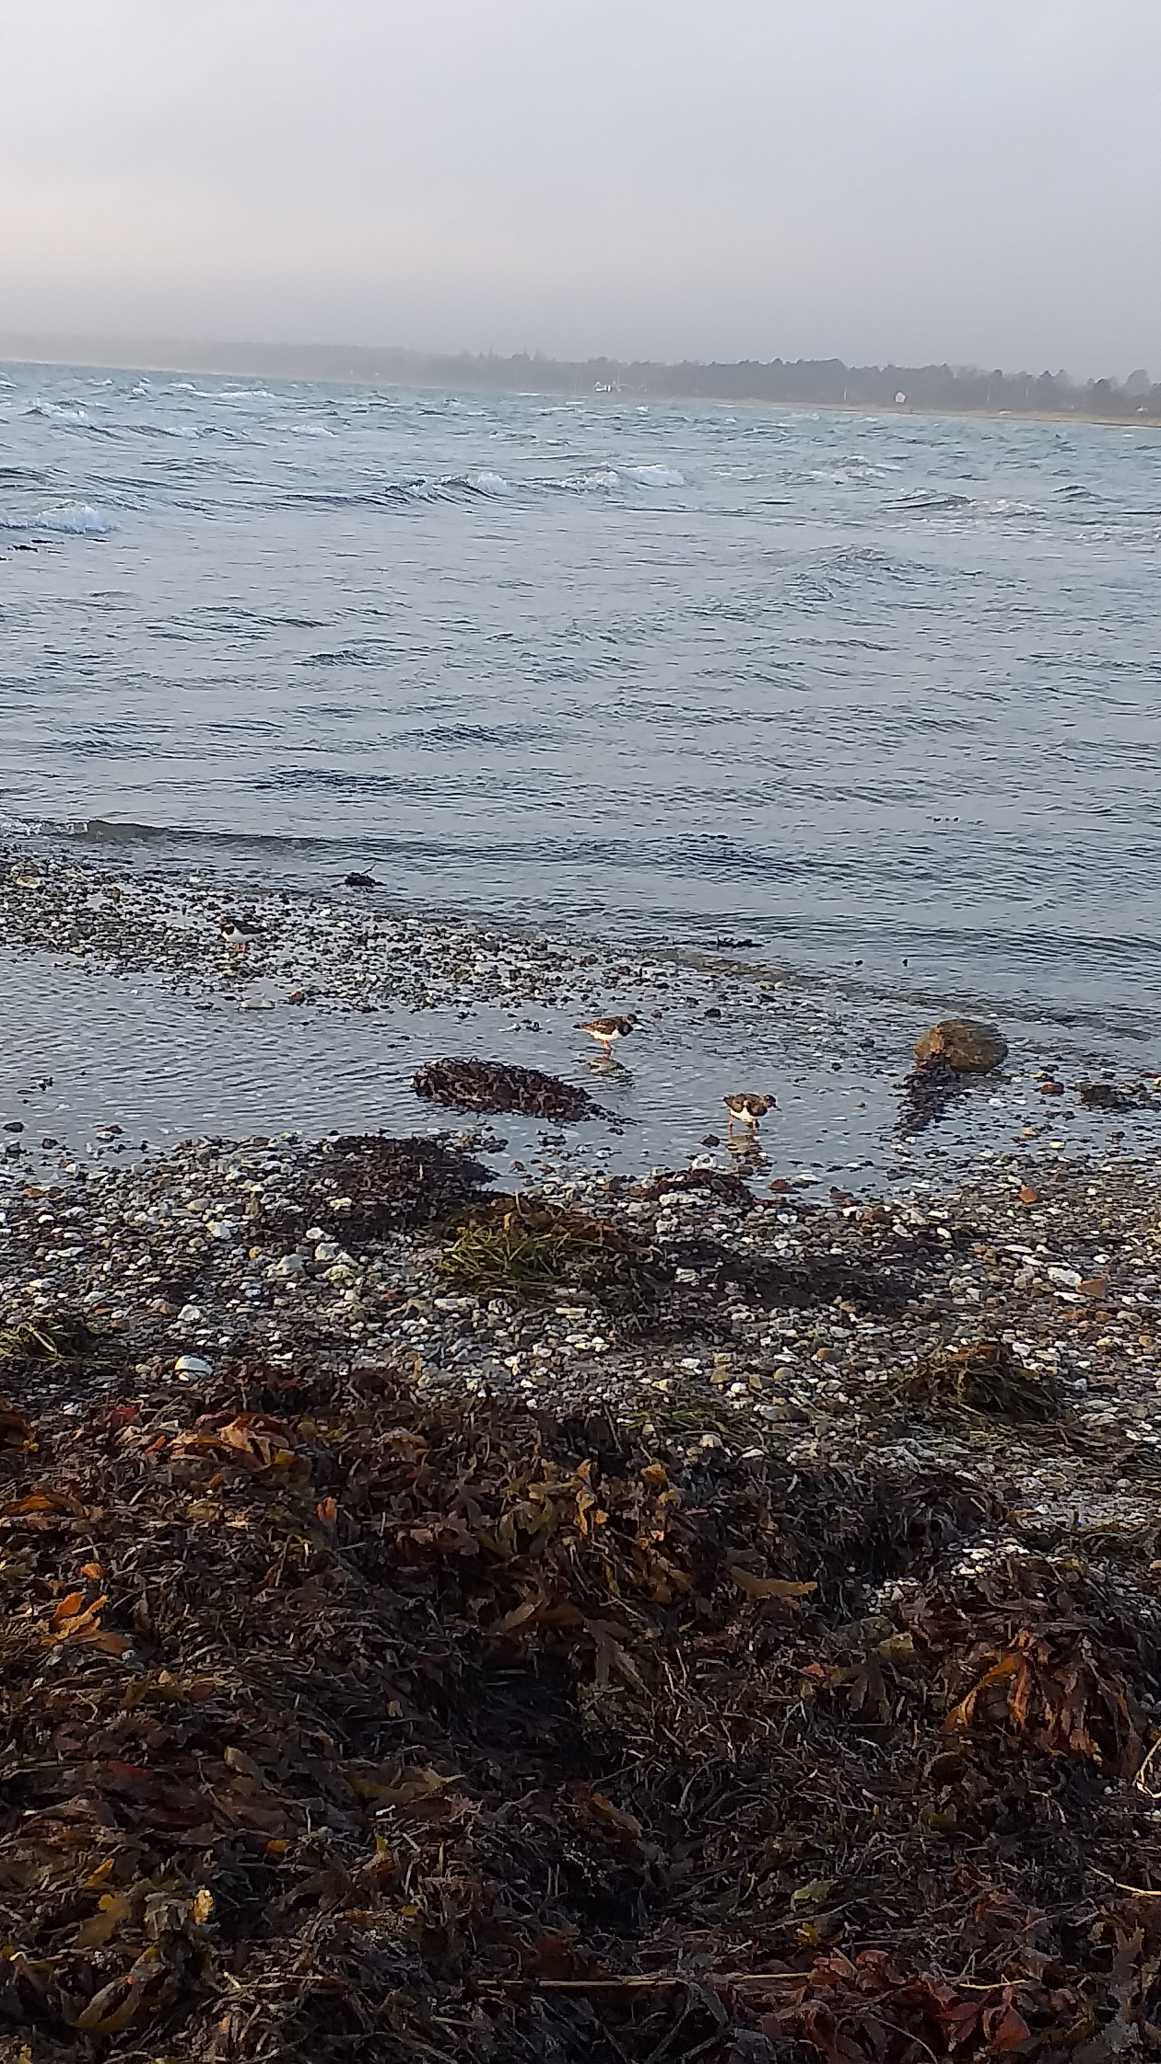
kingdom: Animalia
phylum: Chordata
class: Aves
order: Charadriiformes
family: Scolopacidae
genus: Arenaria
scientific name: Arenaria interpres
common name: Stenvender
